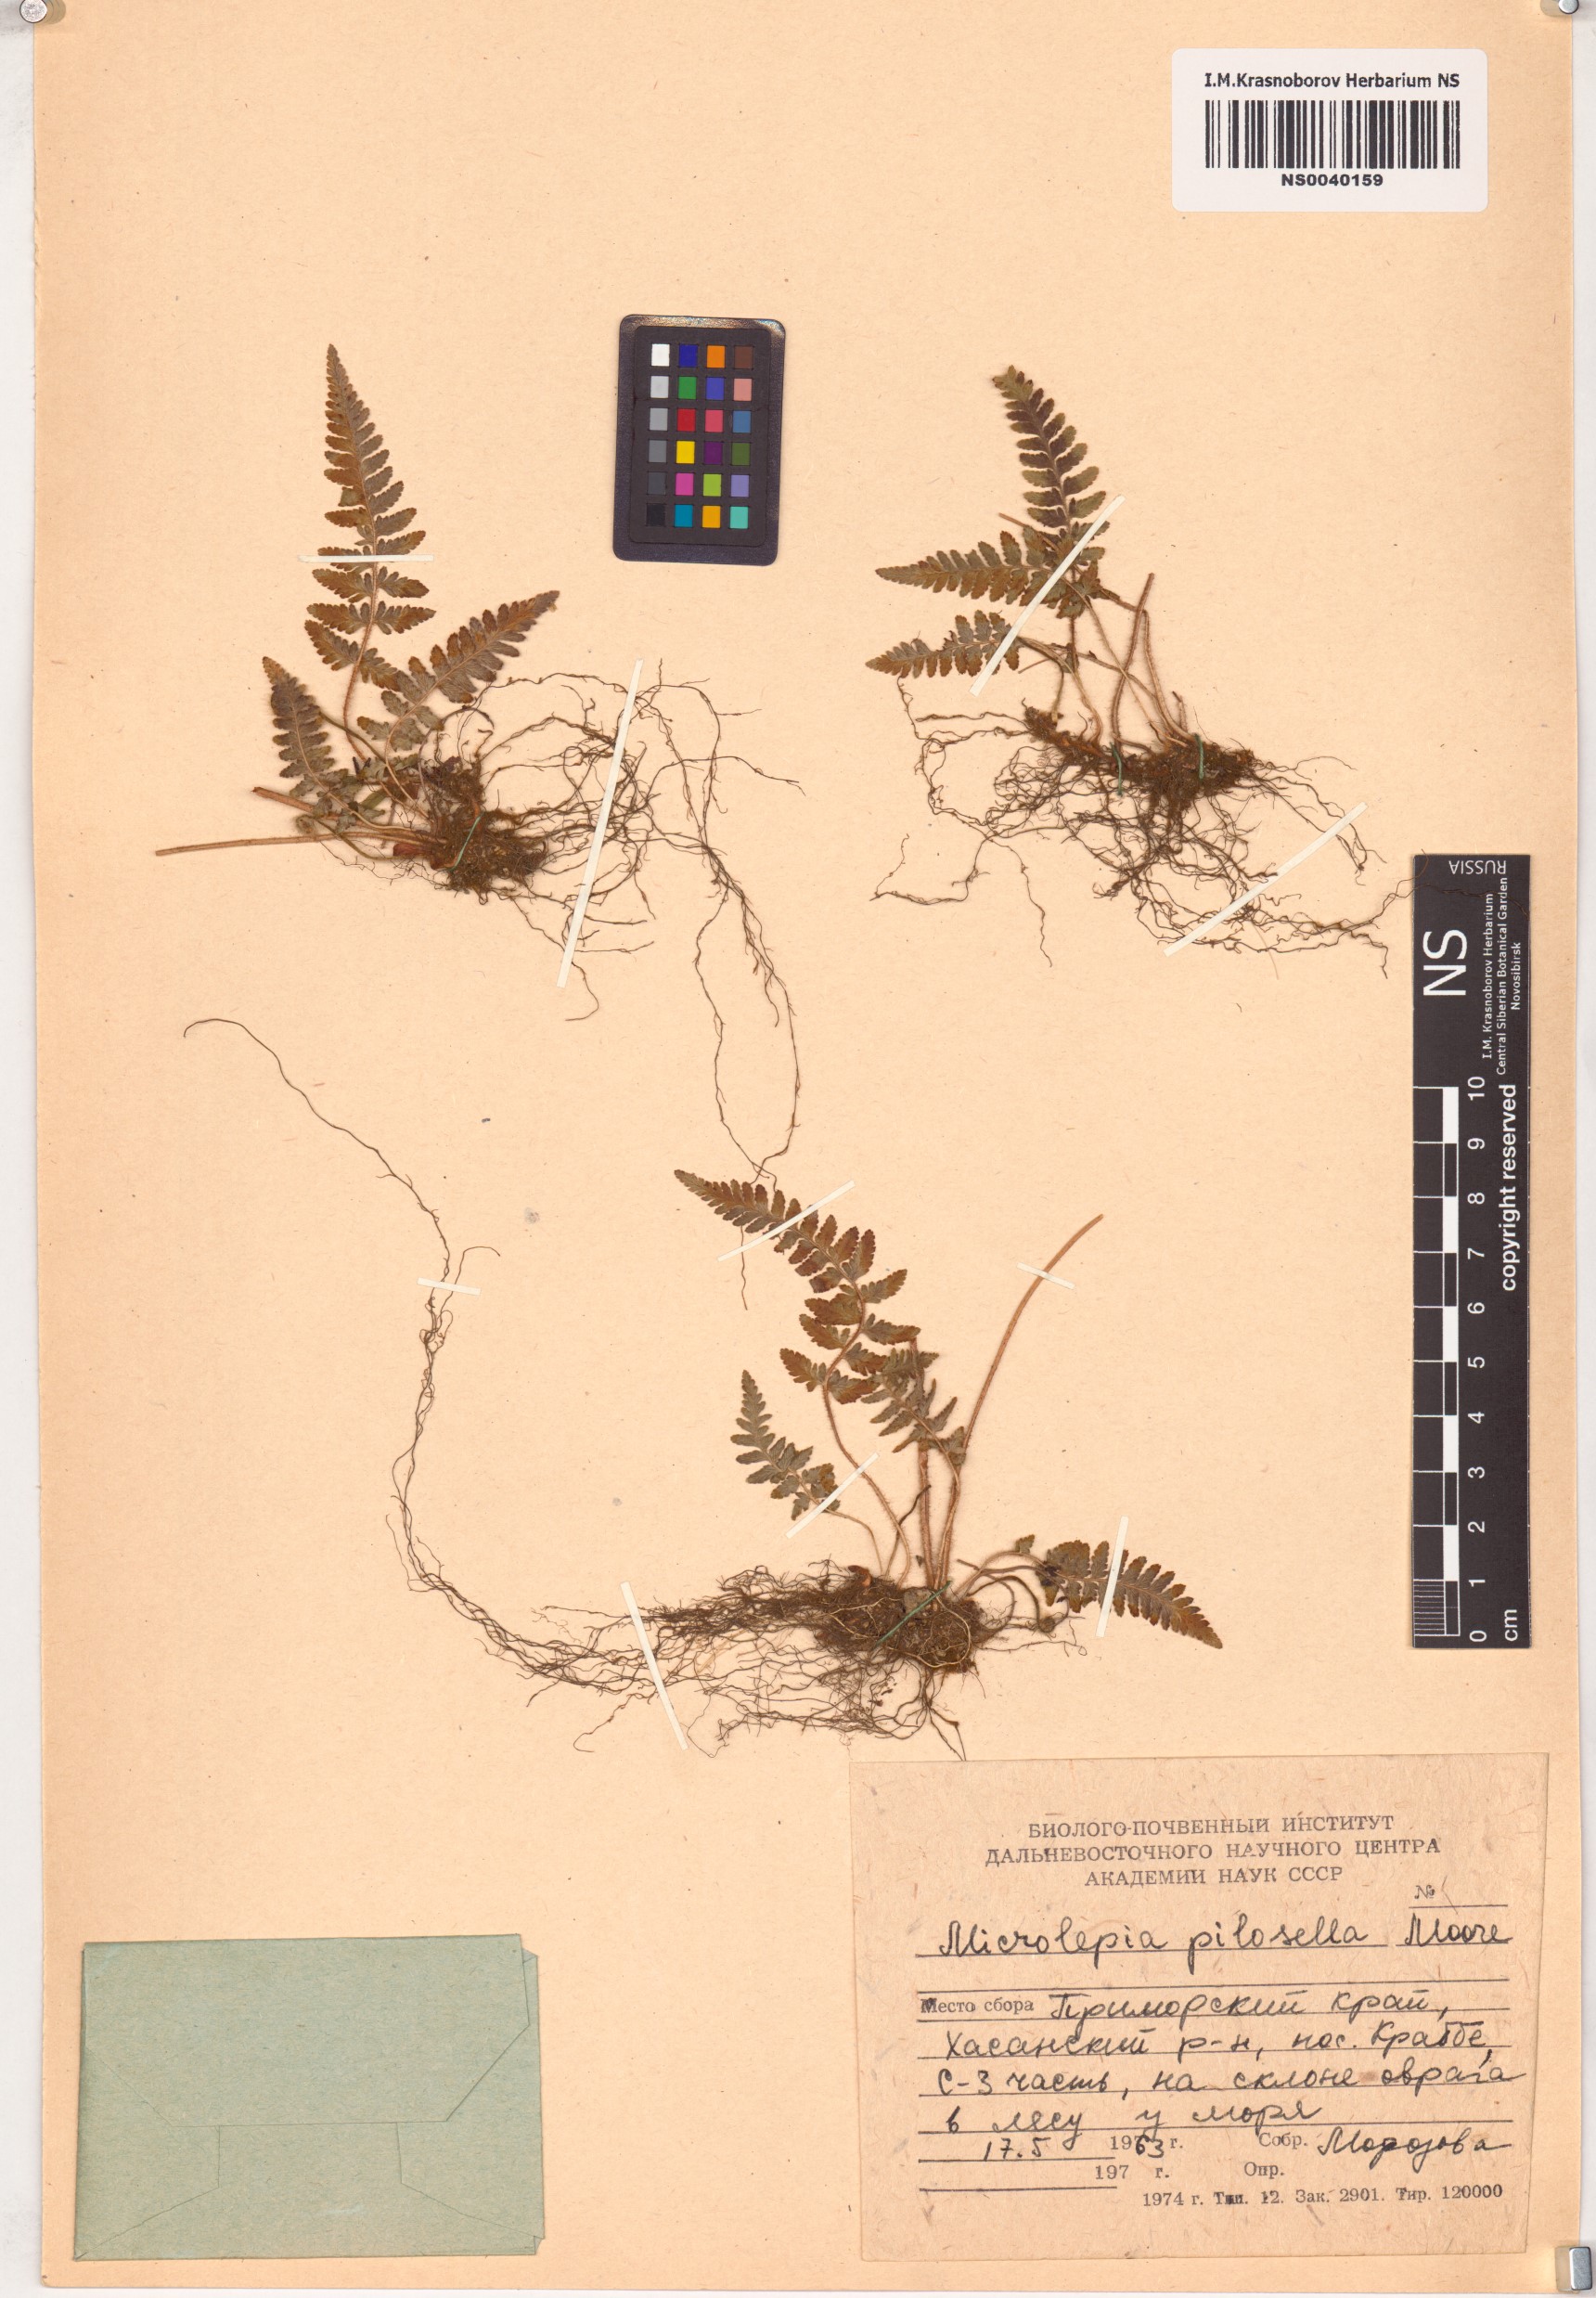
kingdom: Plantae
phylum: Tracheophyta
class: Polypodiopsida
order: Polypodiales
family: Dennstaedtiaceae
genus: Sitobolium
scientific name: Sitobolium hirsutum
